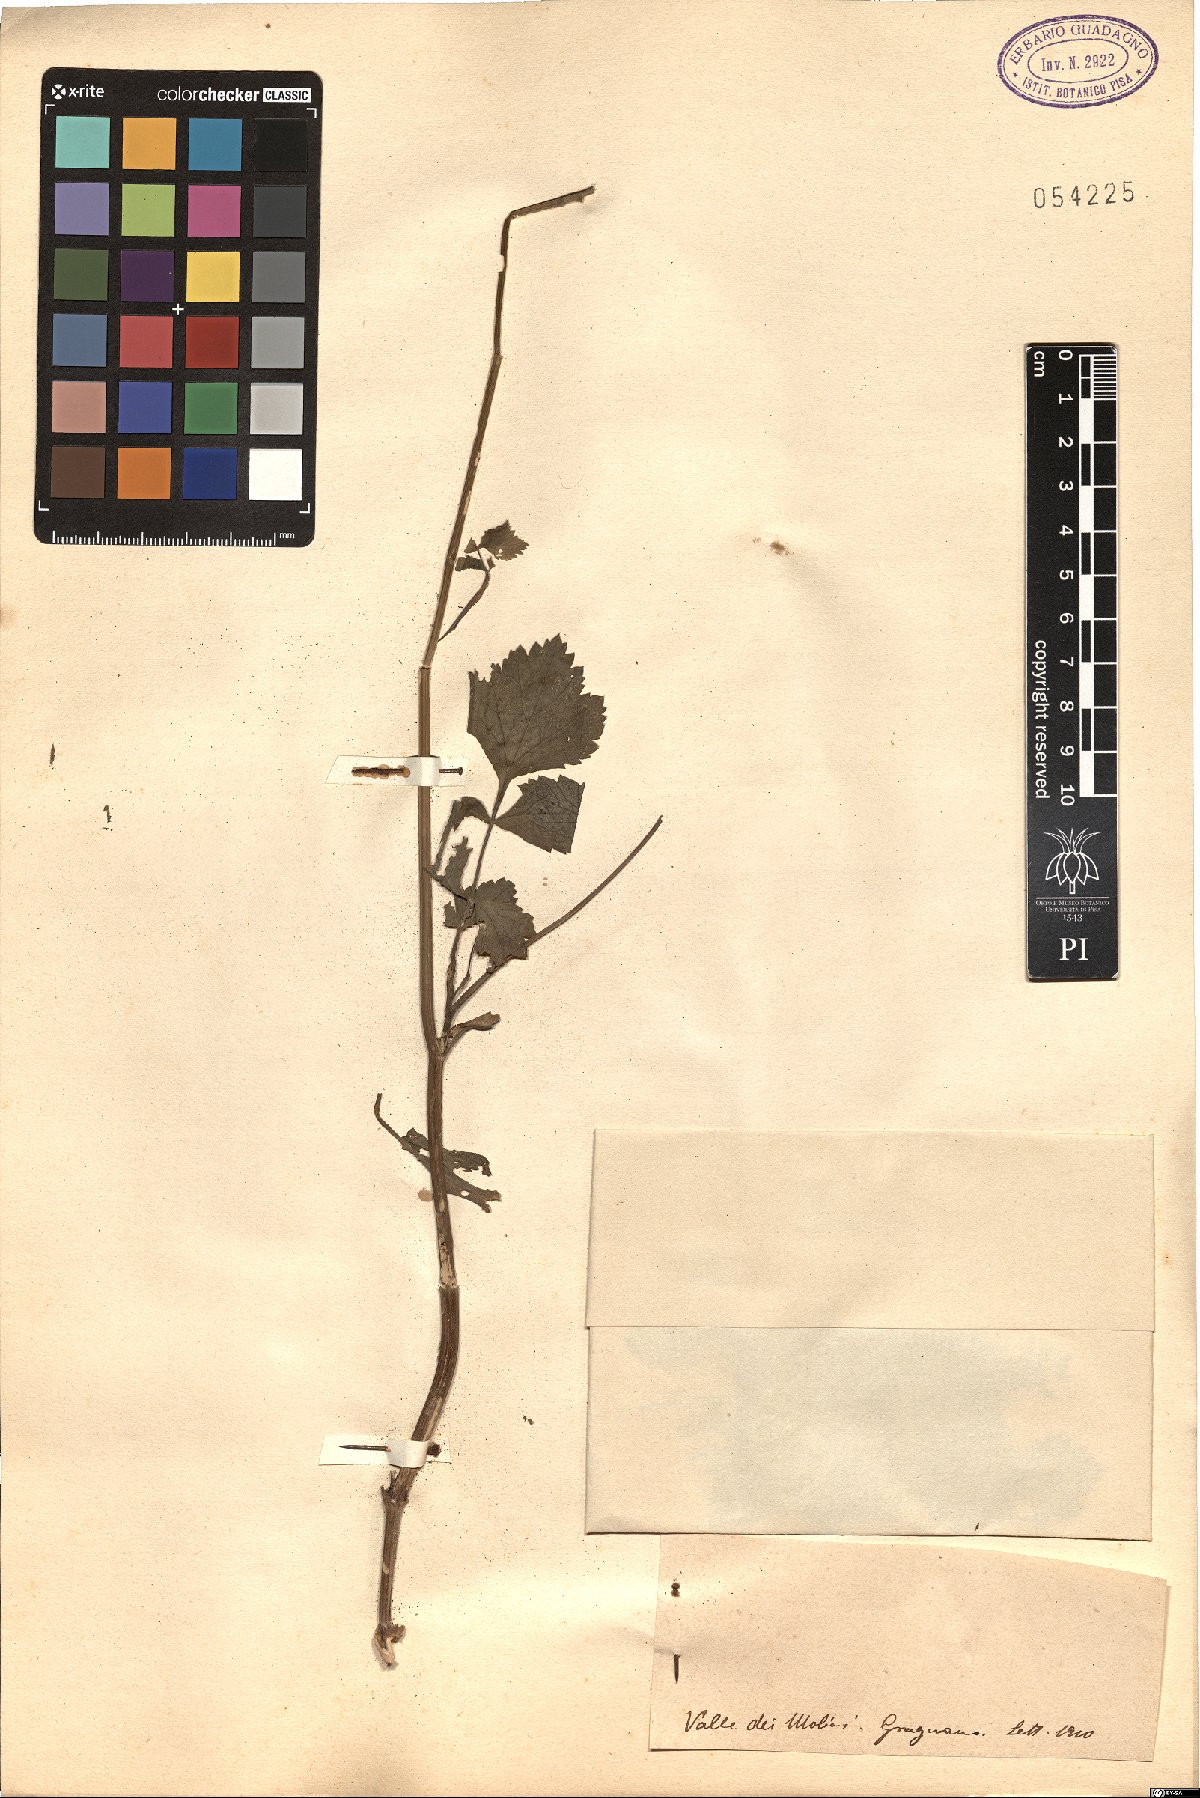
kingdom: Plantae
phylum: Tracheophyta
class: Magnoliopsida
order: Apiales
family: Apiaceae
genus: Pastinaca
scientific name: Pastinaca
